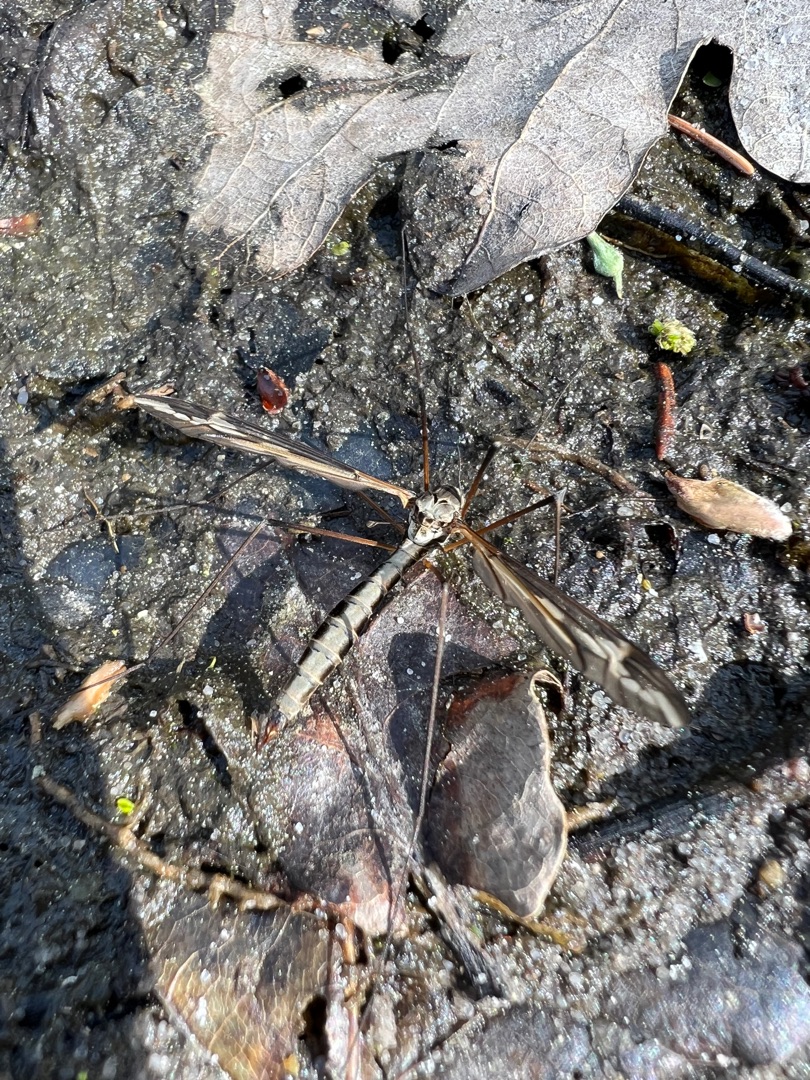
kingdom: Animalia
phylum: Arthropoda
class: Insecta
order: Diptera
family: Tipulidae
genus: Tipula
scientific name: Tipula vittata
